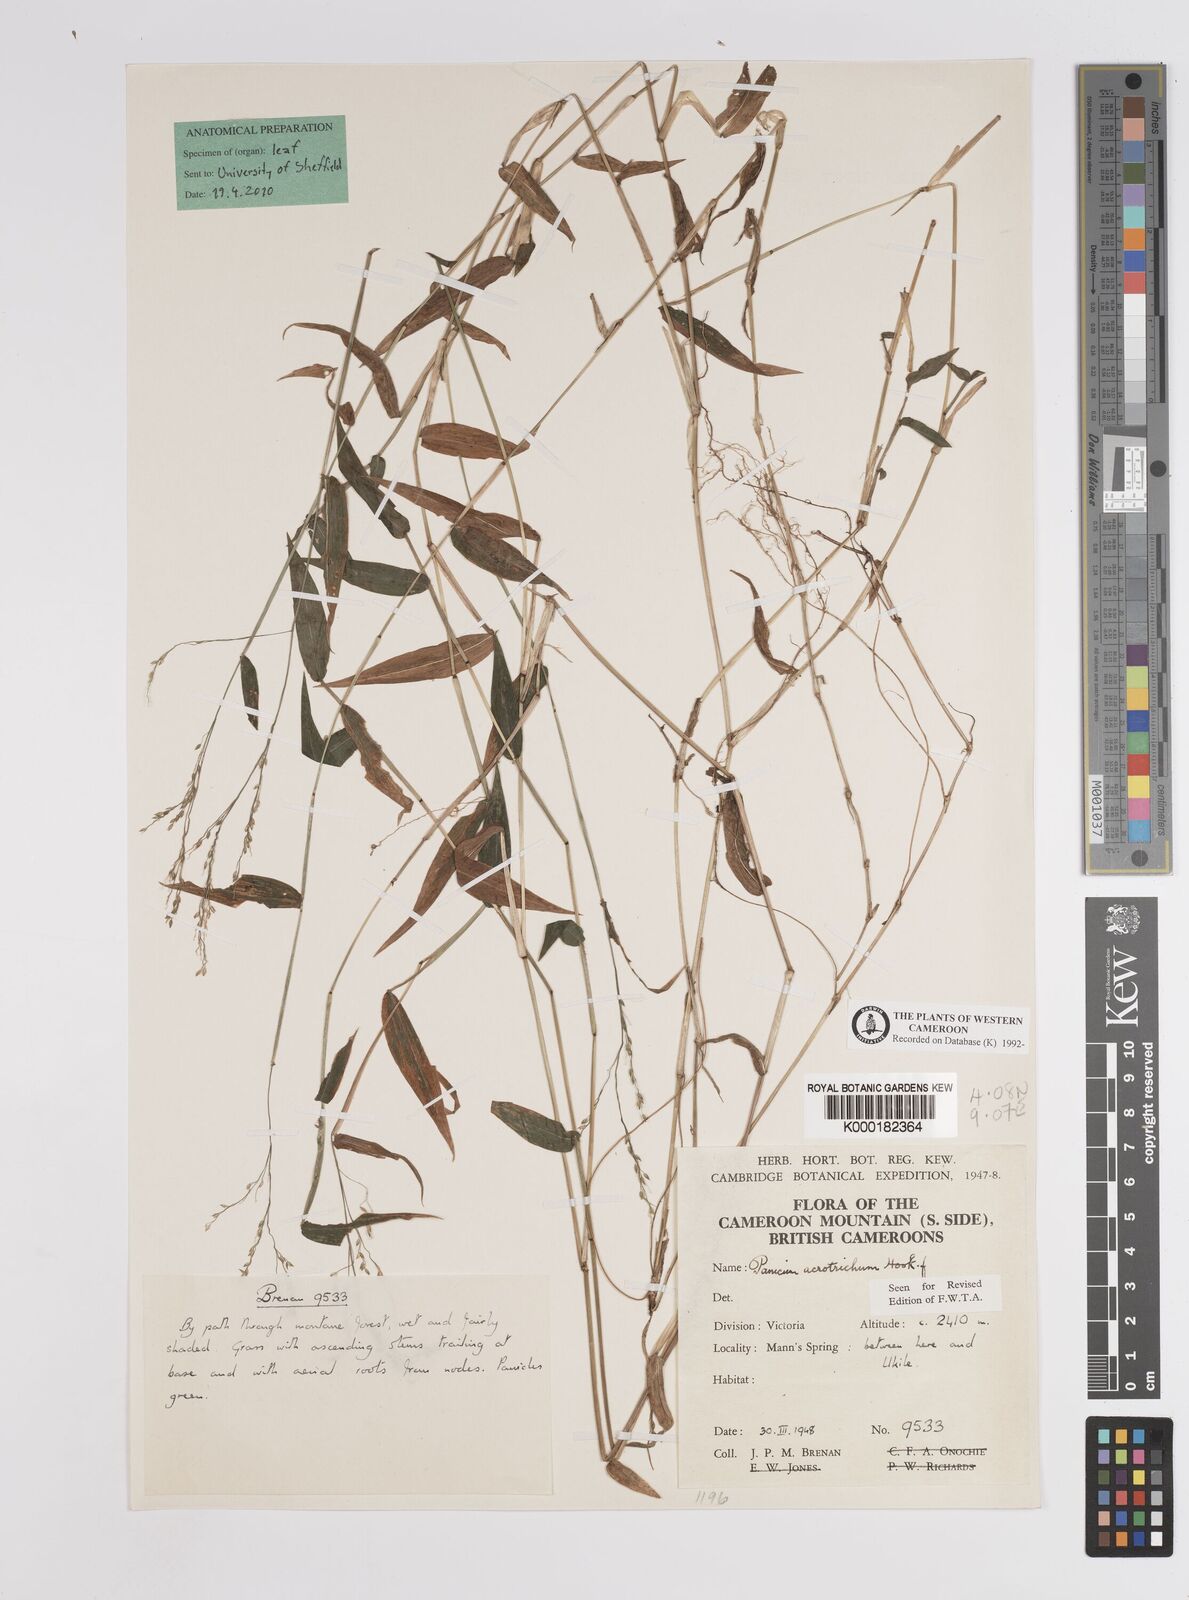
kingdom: Plantae
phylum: Tracheophyta
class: Liliopsida
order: Poales
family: Poaceae
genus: Panicum
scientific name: Panicum acrotrichum
